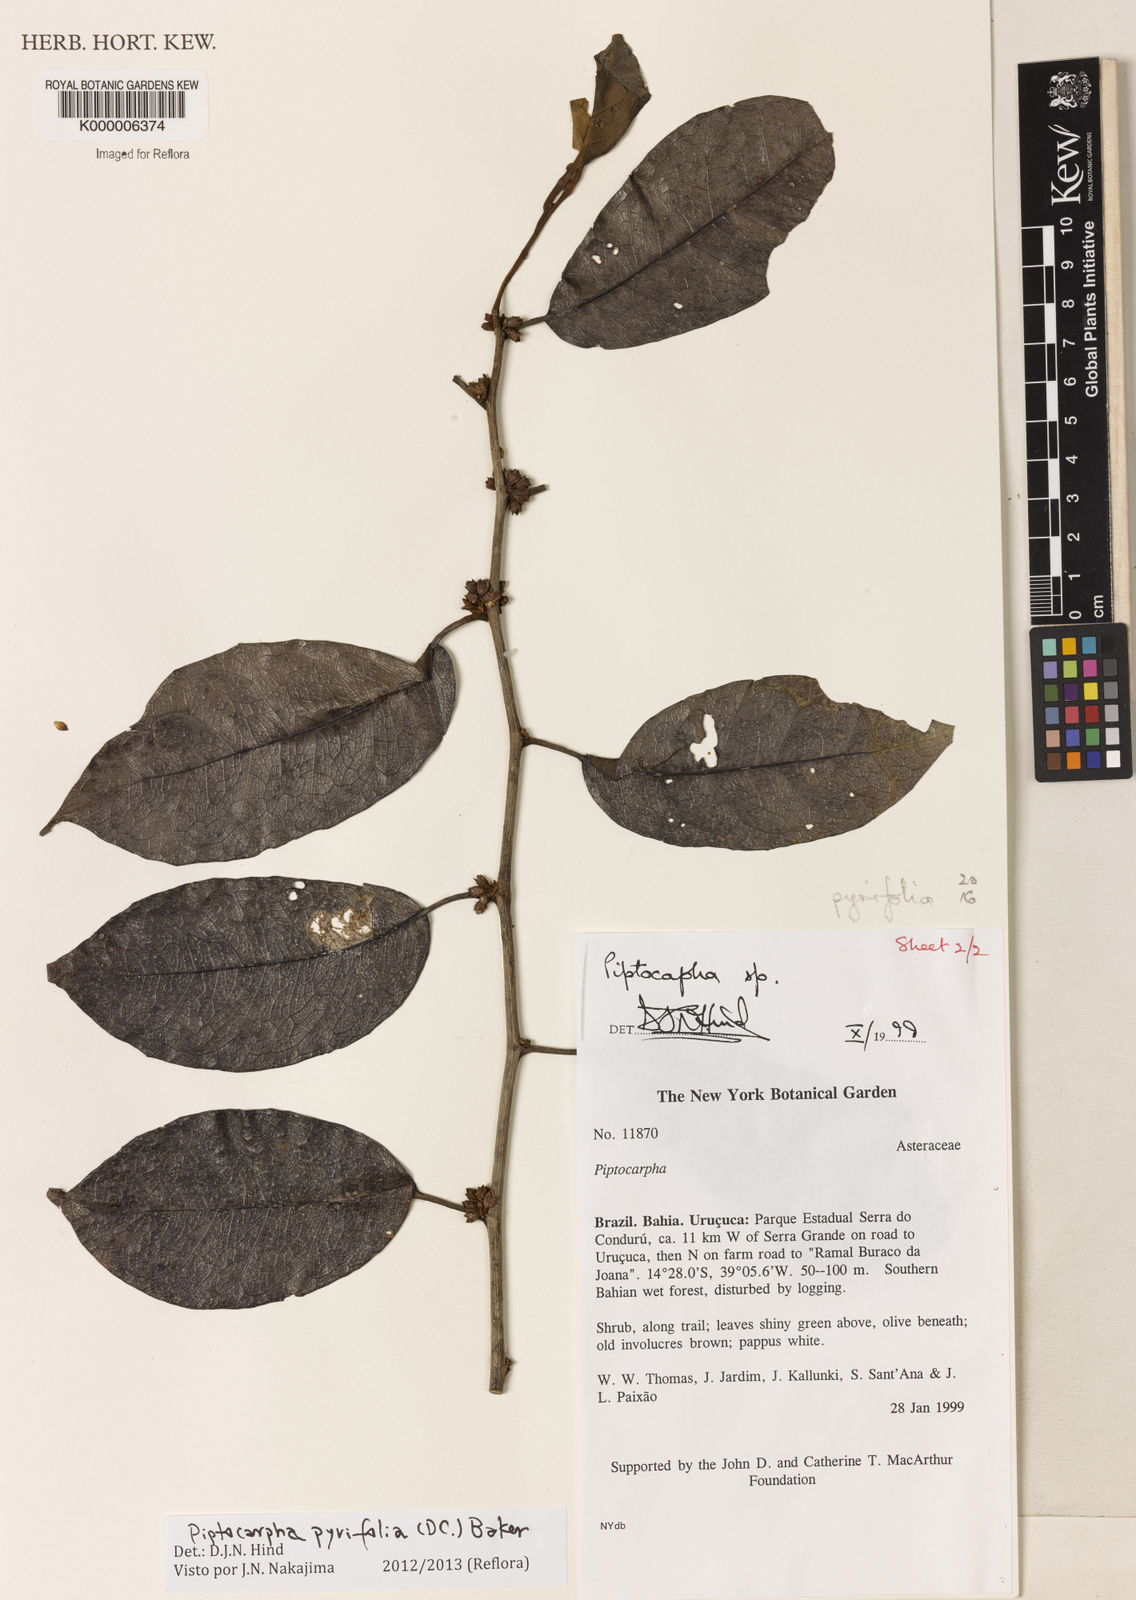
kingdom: Plantae
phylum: Tracheophyta
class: Magnoliopsida
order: Asterales
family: Asteraceae
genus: Piptocarpha
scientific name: Piptocarpha
